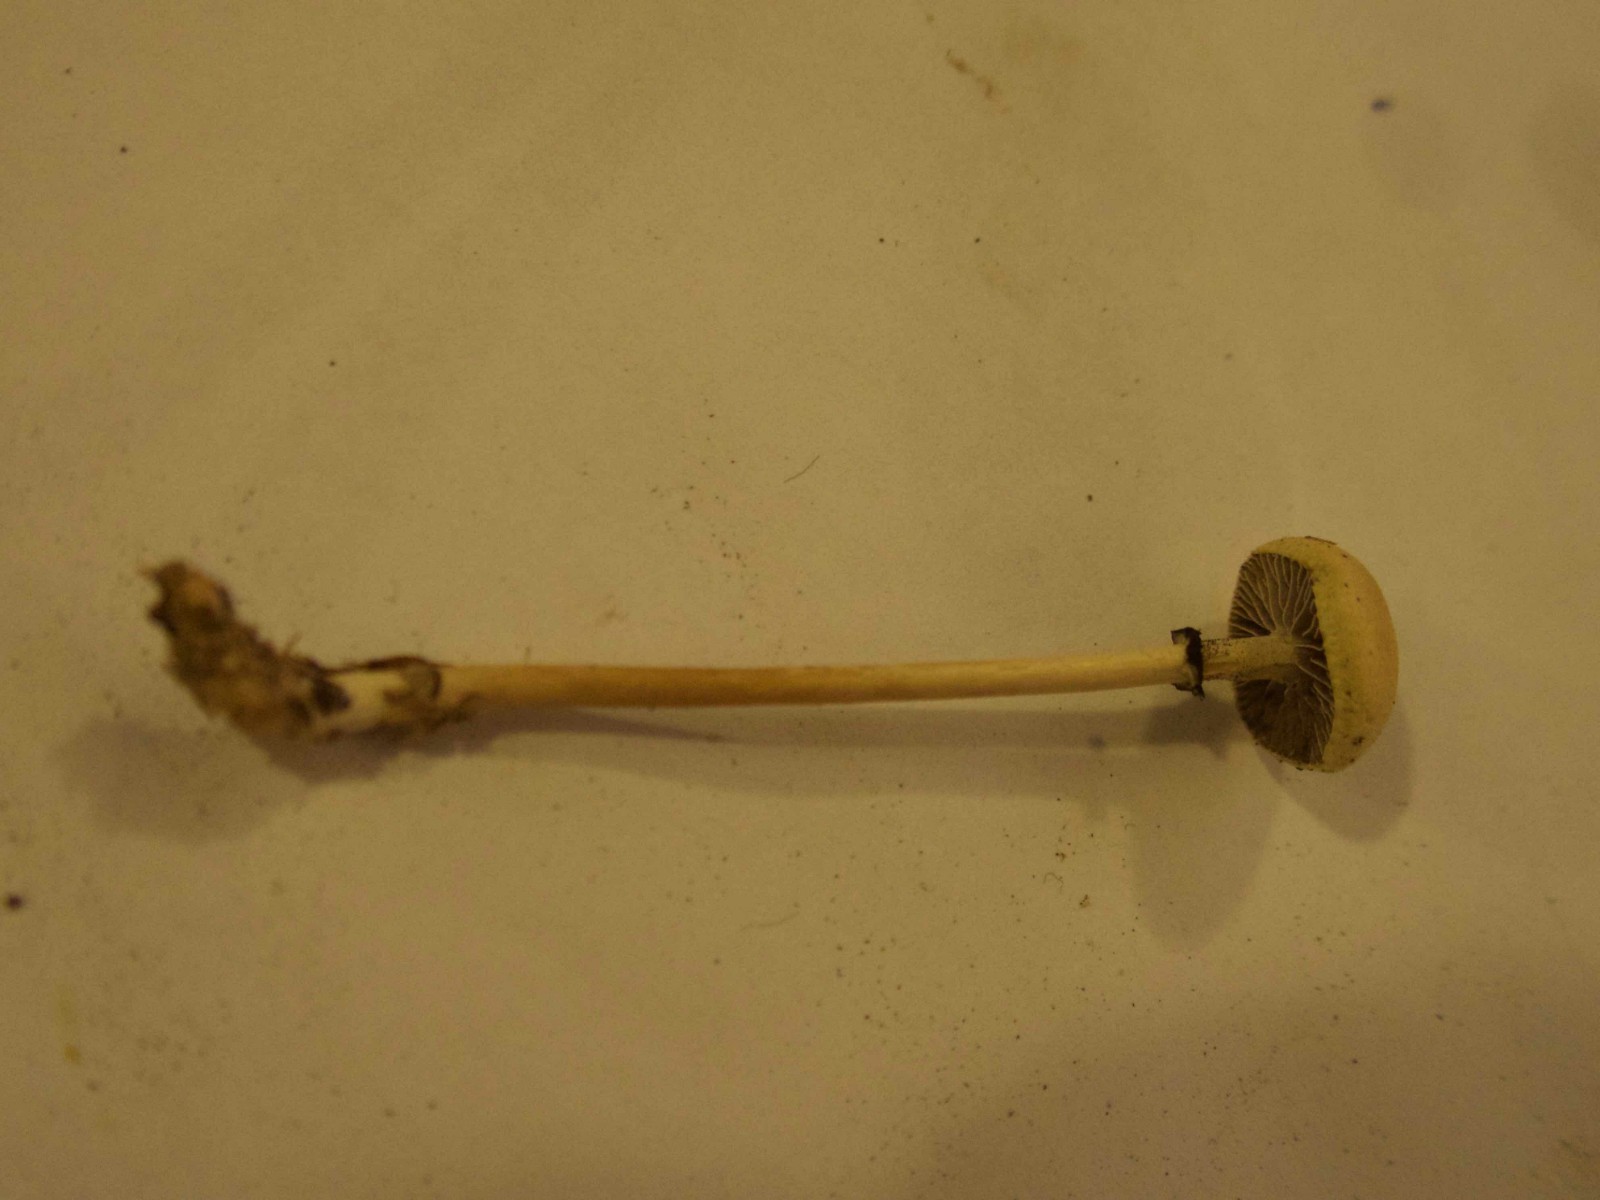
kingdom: Fungi
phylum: Basidiomycota
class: Agaricomycetes
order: Agaricales
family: Strophariaceae
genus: Protostropharia
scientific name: Protostropharia semiglobata
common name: halvkugleformet bredblad
